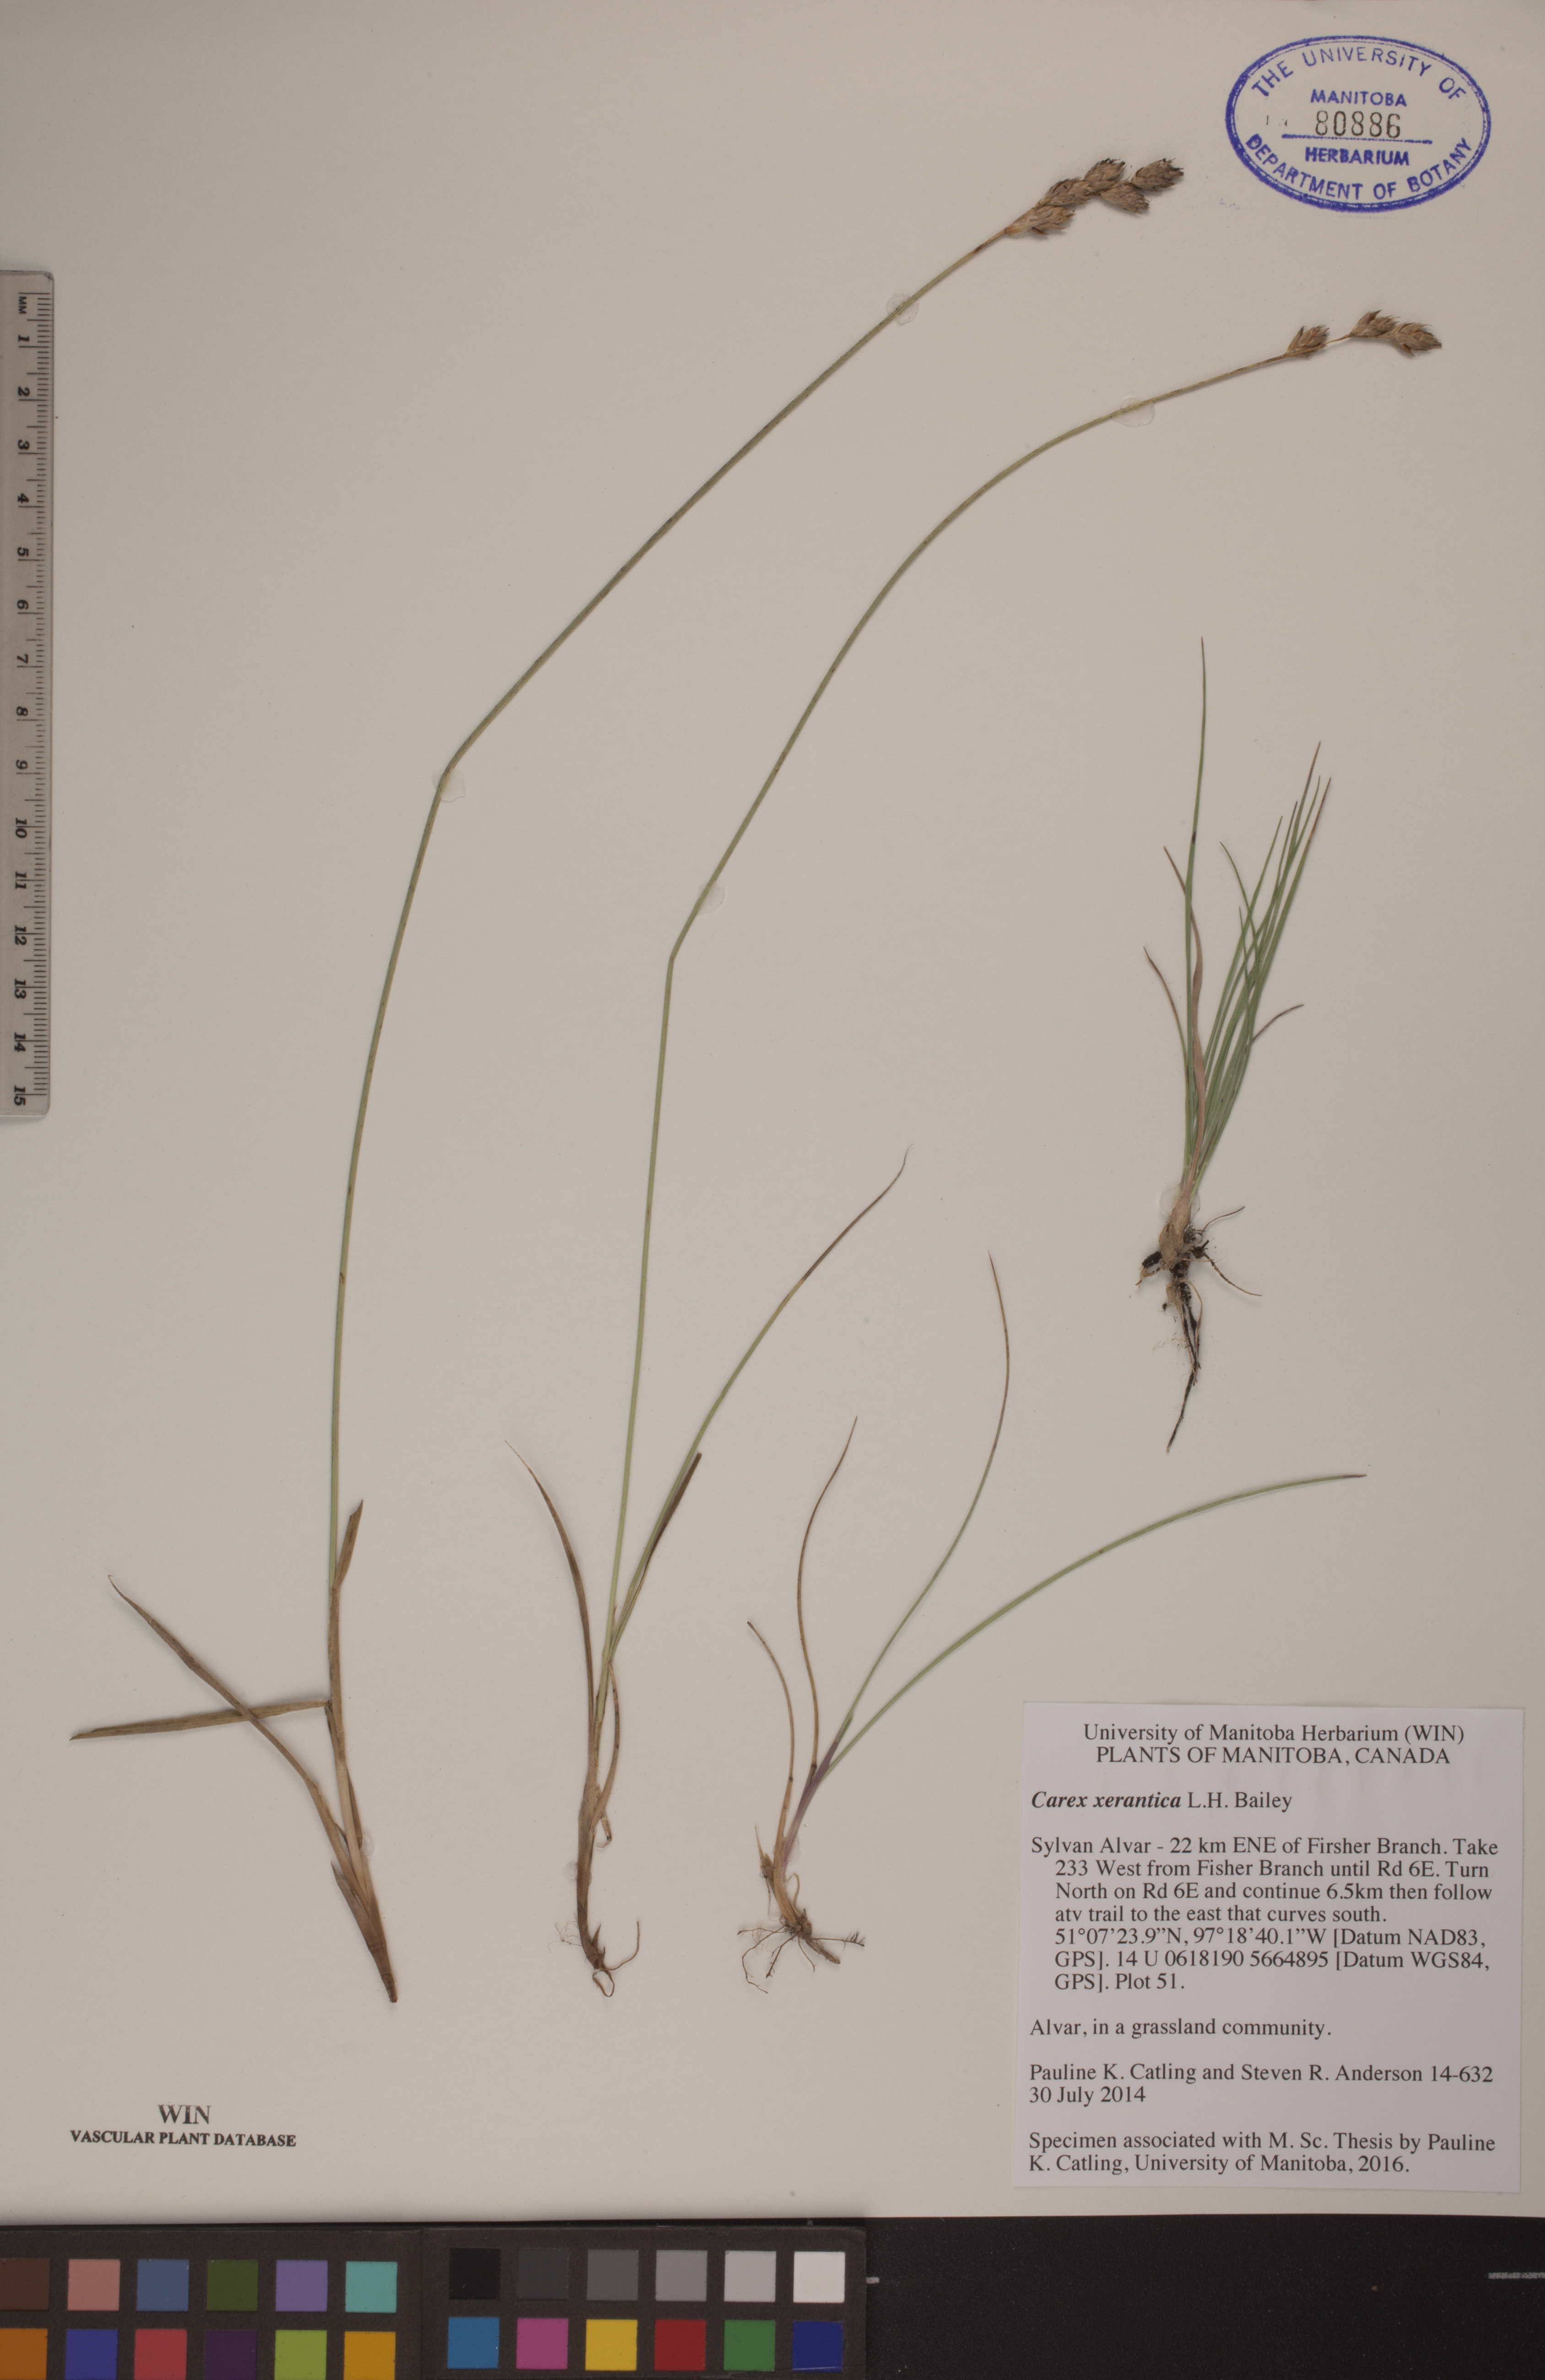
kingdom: Plantae
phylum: Tracheophyta
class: Liliopsida
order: Poales
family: Cyperaceae
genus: Carex
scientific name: Carex xerantica
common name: Dryland sedge
